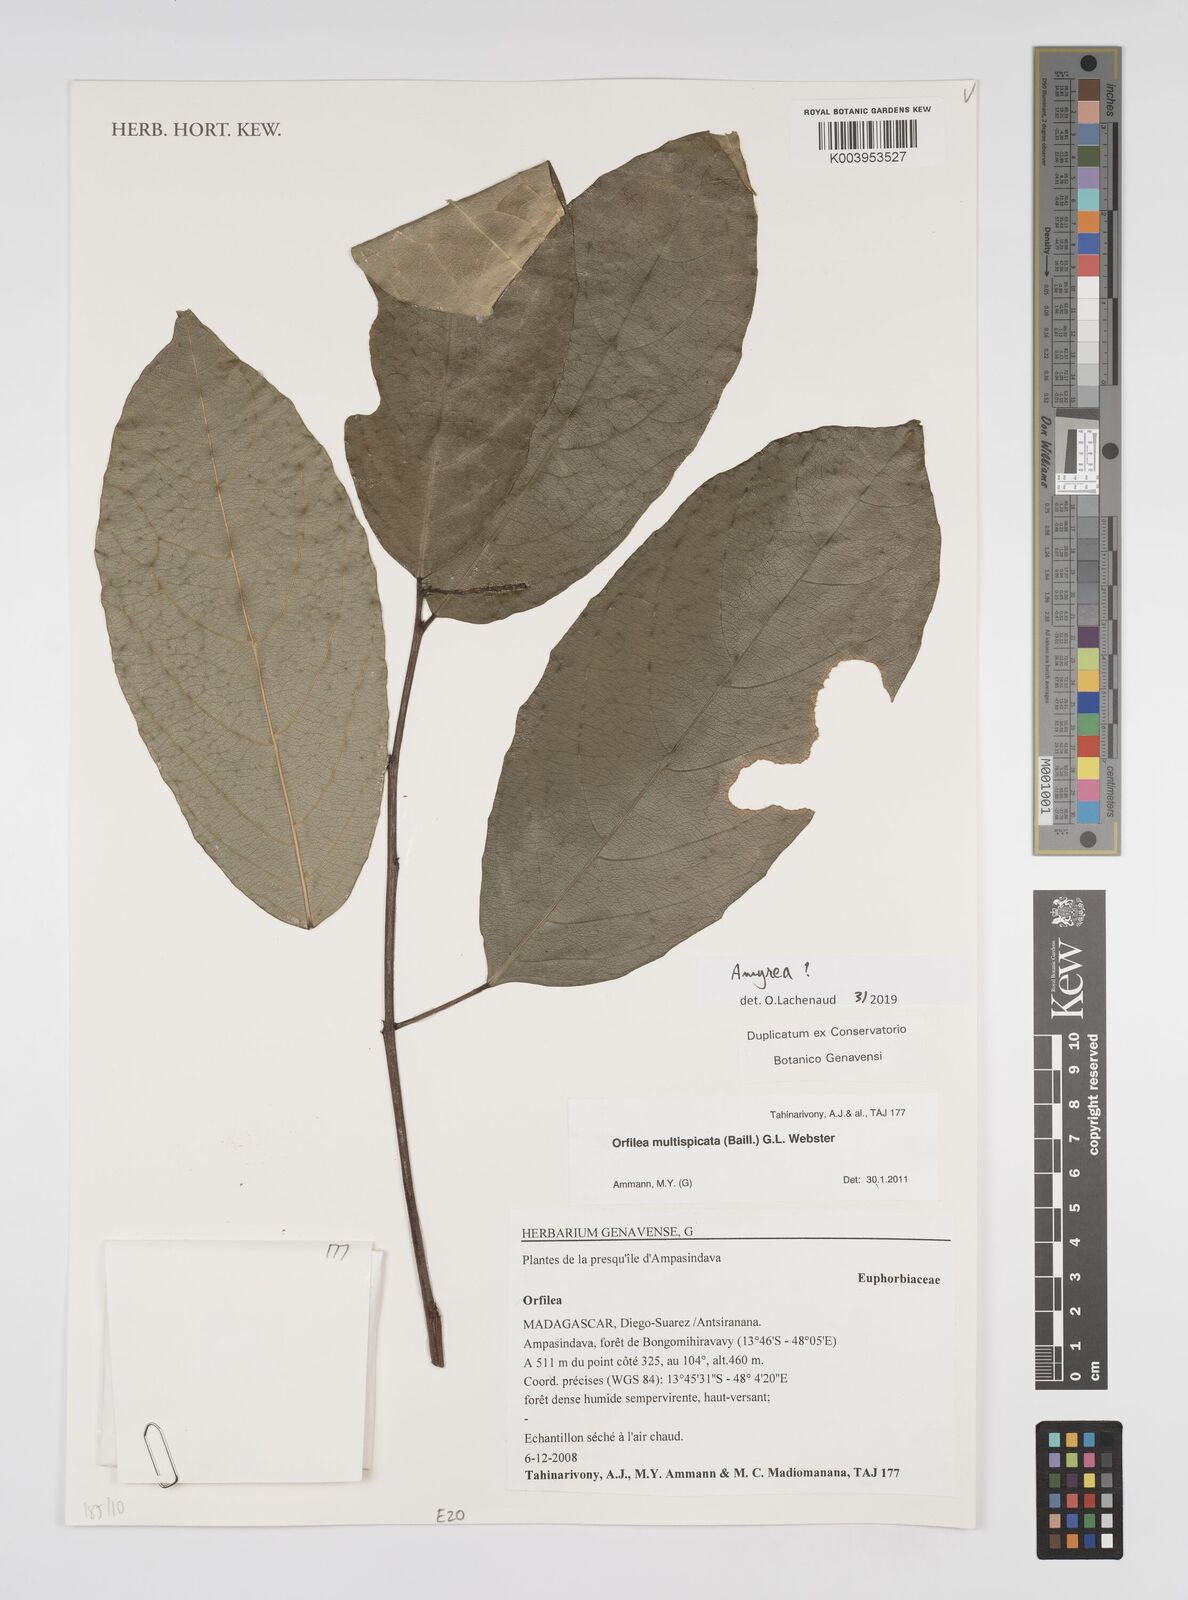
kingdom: Plantae
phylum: Tracheophyta
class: Magnoliopsida
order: Malpighiales
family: Euphorbiaceae
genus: Amyrea
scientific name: Amyrea
